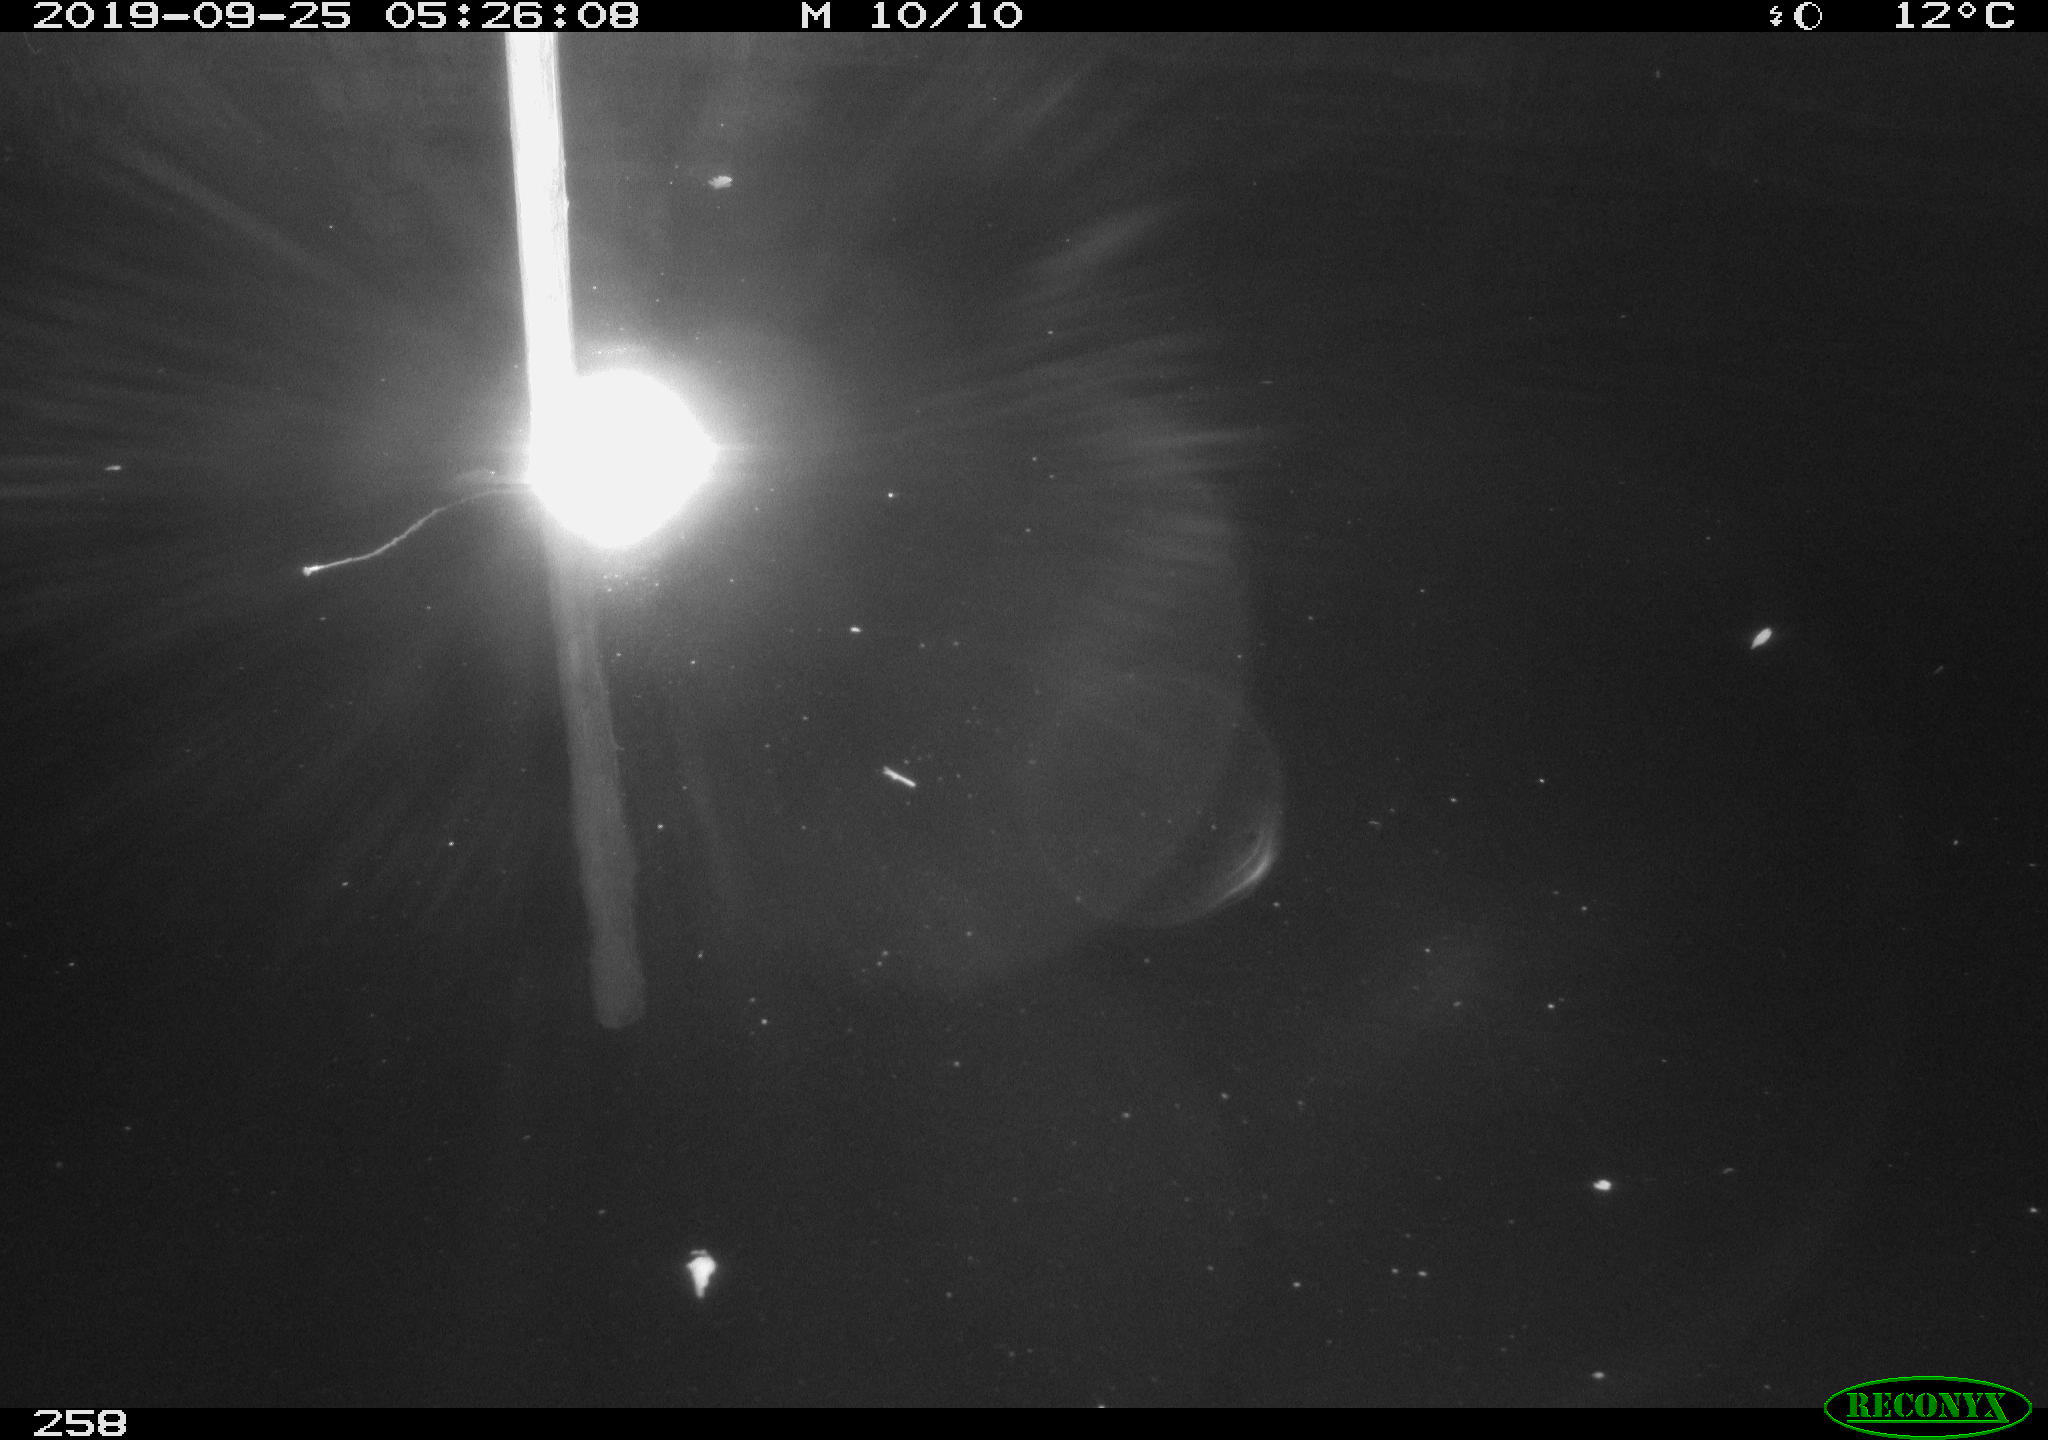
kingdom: Animalia
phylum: Chordata
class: Aves
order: Anseriformes
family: Anatidae
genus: Anas
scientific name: Anas platyrhynchos
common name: Mallard
